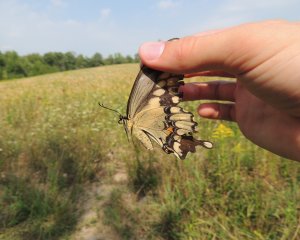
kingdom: Animalia
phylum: Arthropoda
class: Insecta
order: Lepidoptera
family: Papilionidae
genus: Papilio
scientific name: Papilio cresphontes
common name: Eastern Giant Swallowtail
